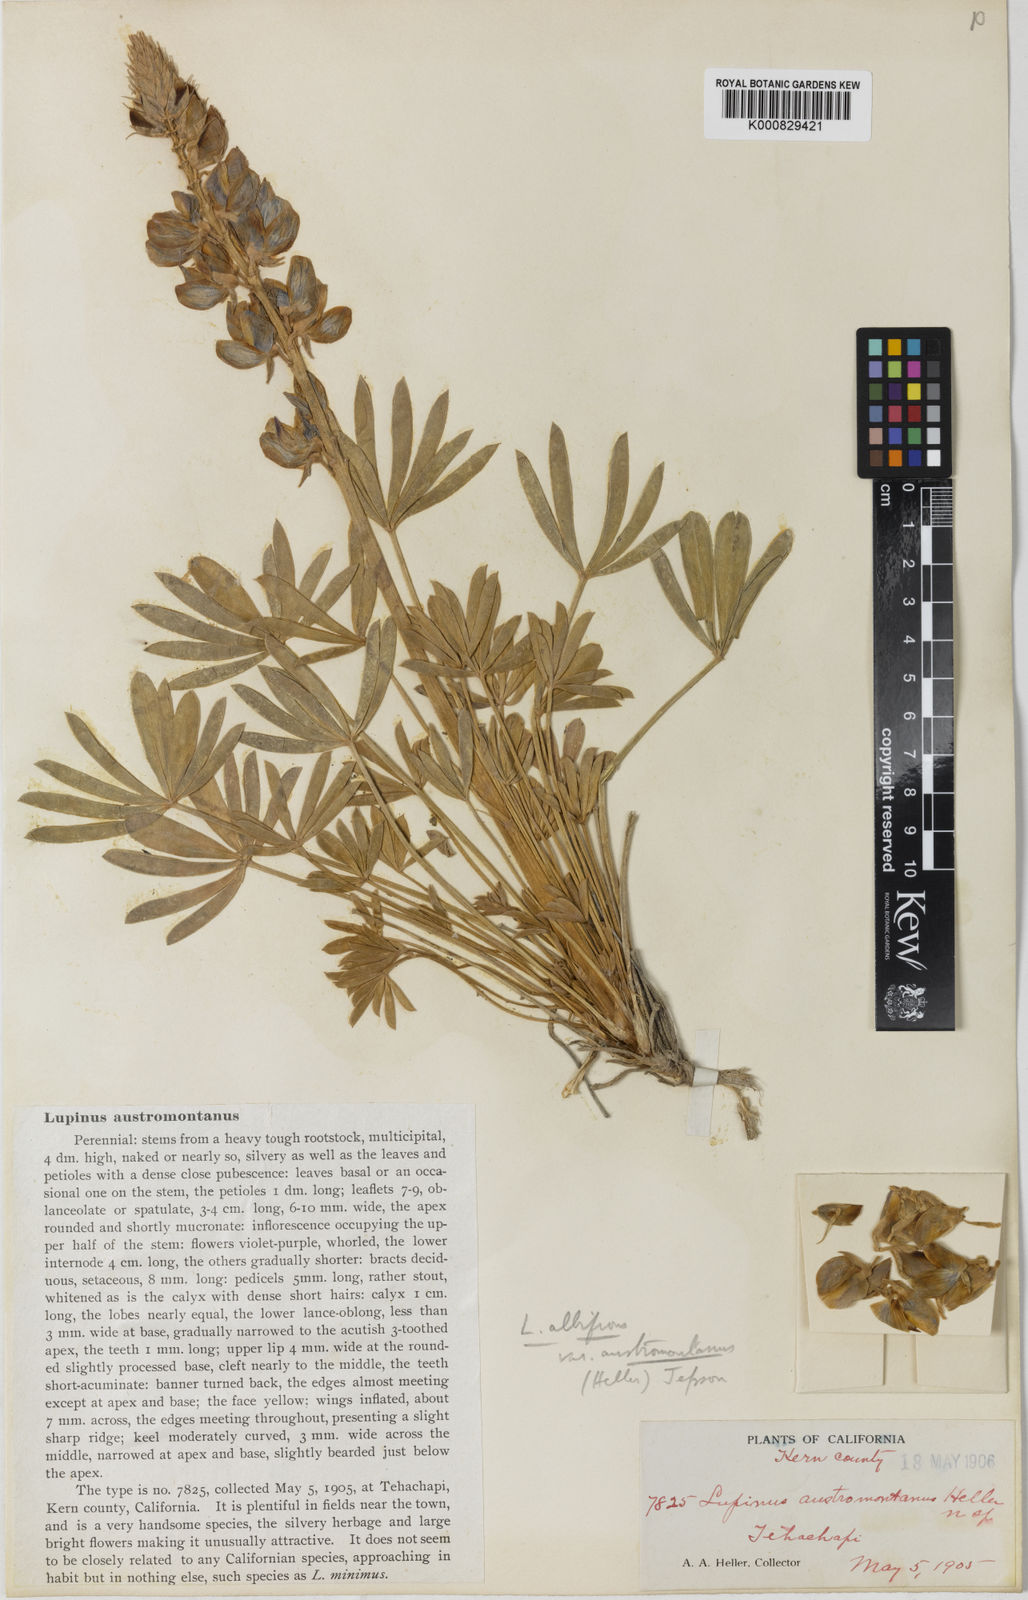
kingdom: Plantae
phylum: Tracheophyta
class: Magnoliopsida
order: Fabales
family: Fabaceae
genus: Lupinus
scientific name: Lupinus excubitus
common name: Grape soda lupine
